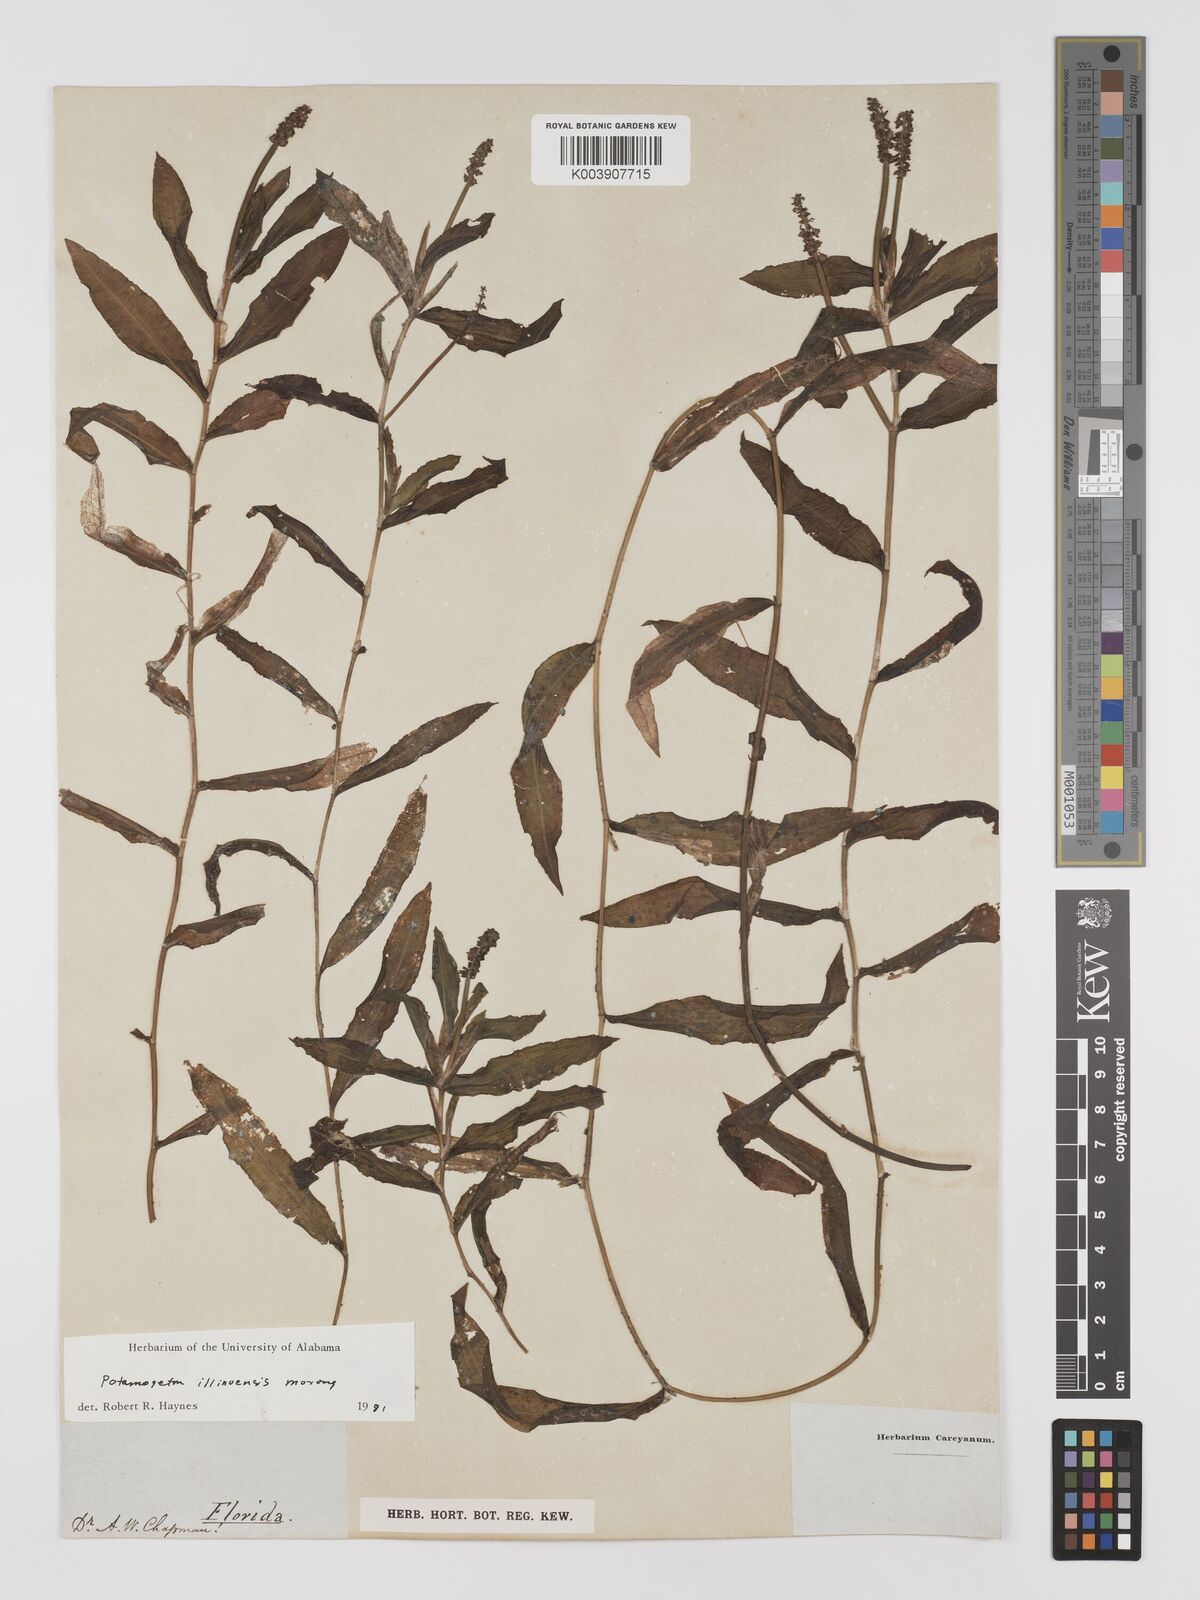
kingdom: Plantae
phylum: Tracheophyta
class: Liliopsida
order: Alismatales
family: Potamogetonaceae
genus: Potamogeton
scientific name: Potamogeton illinoensis
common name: Illinois pondweed
